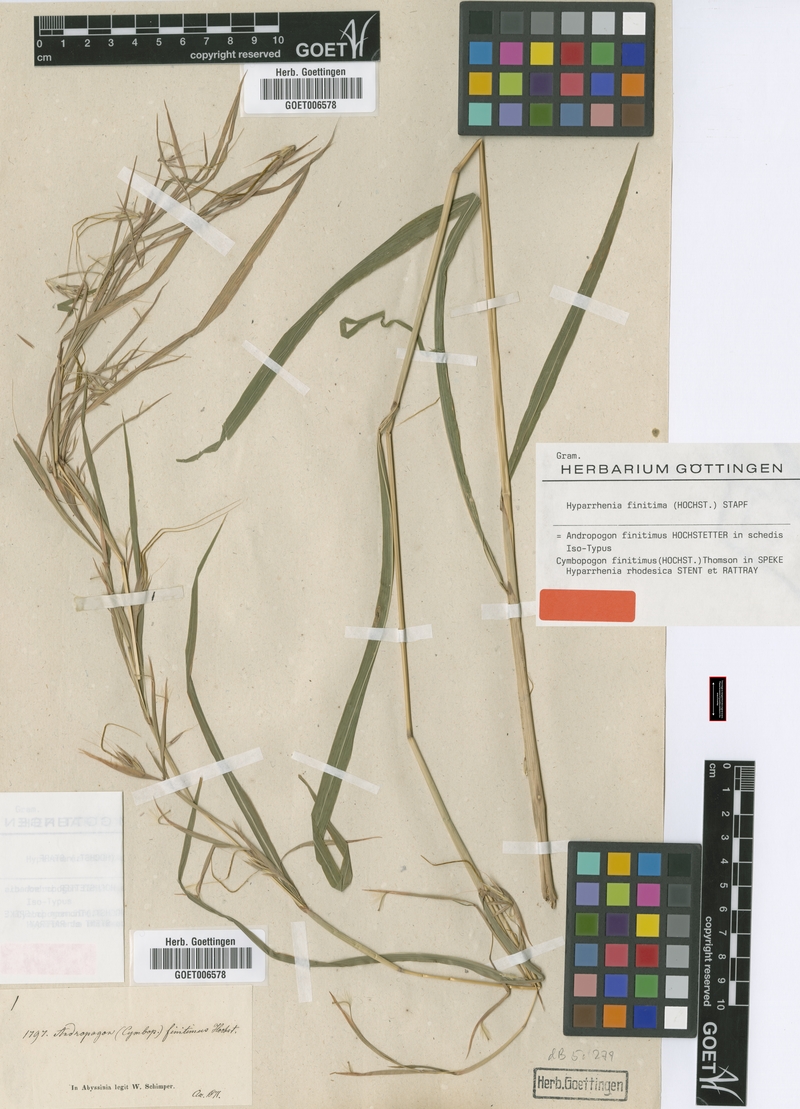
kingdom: Plantae
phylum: Tracheophyta
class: Liliopsida
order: Poales
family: Poaceae
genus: Hyparrhenia
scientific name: Hyparrhenia finitima
